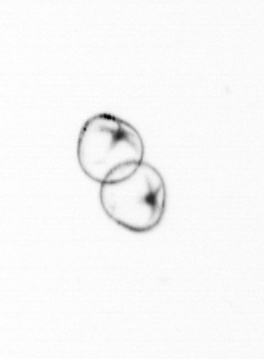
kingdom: Chromista
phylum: Myzozoa
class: Dinophyceae
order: Noctilucales
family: Noctilucaceae
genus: Noctiluca
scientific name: Noctiluca scintillans
